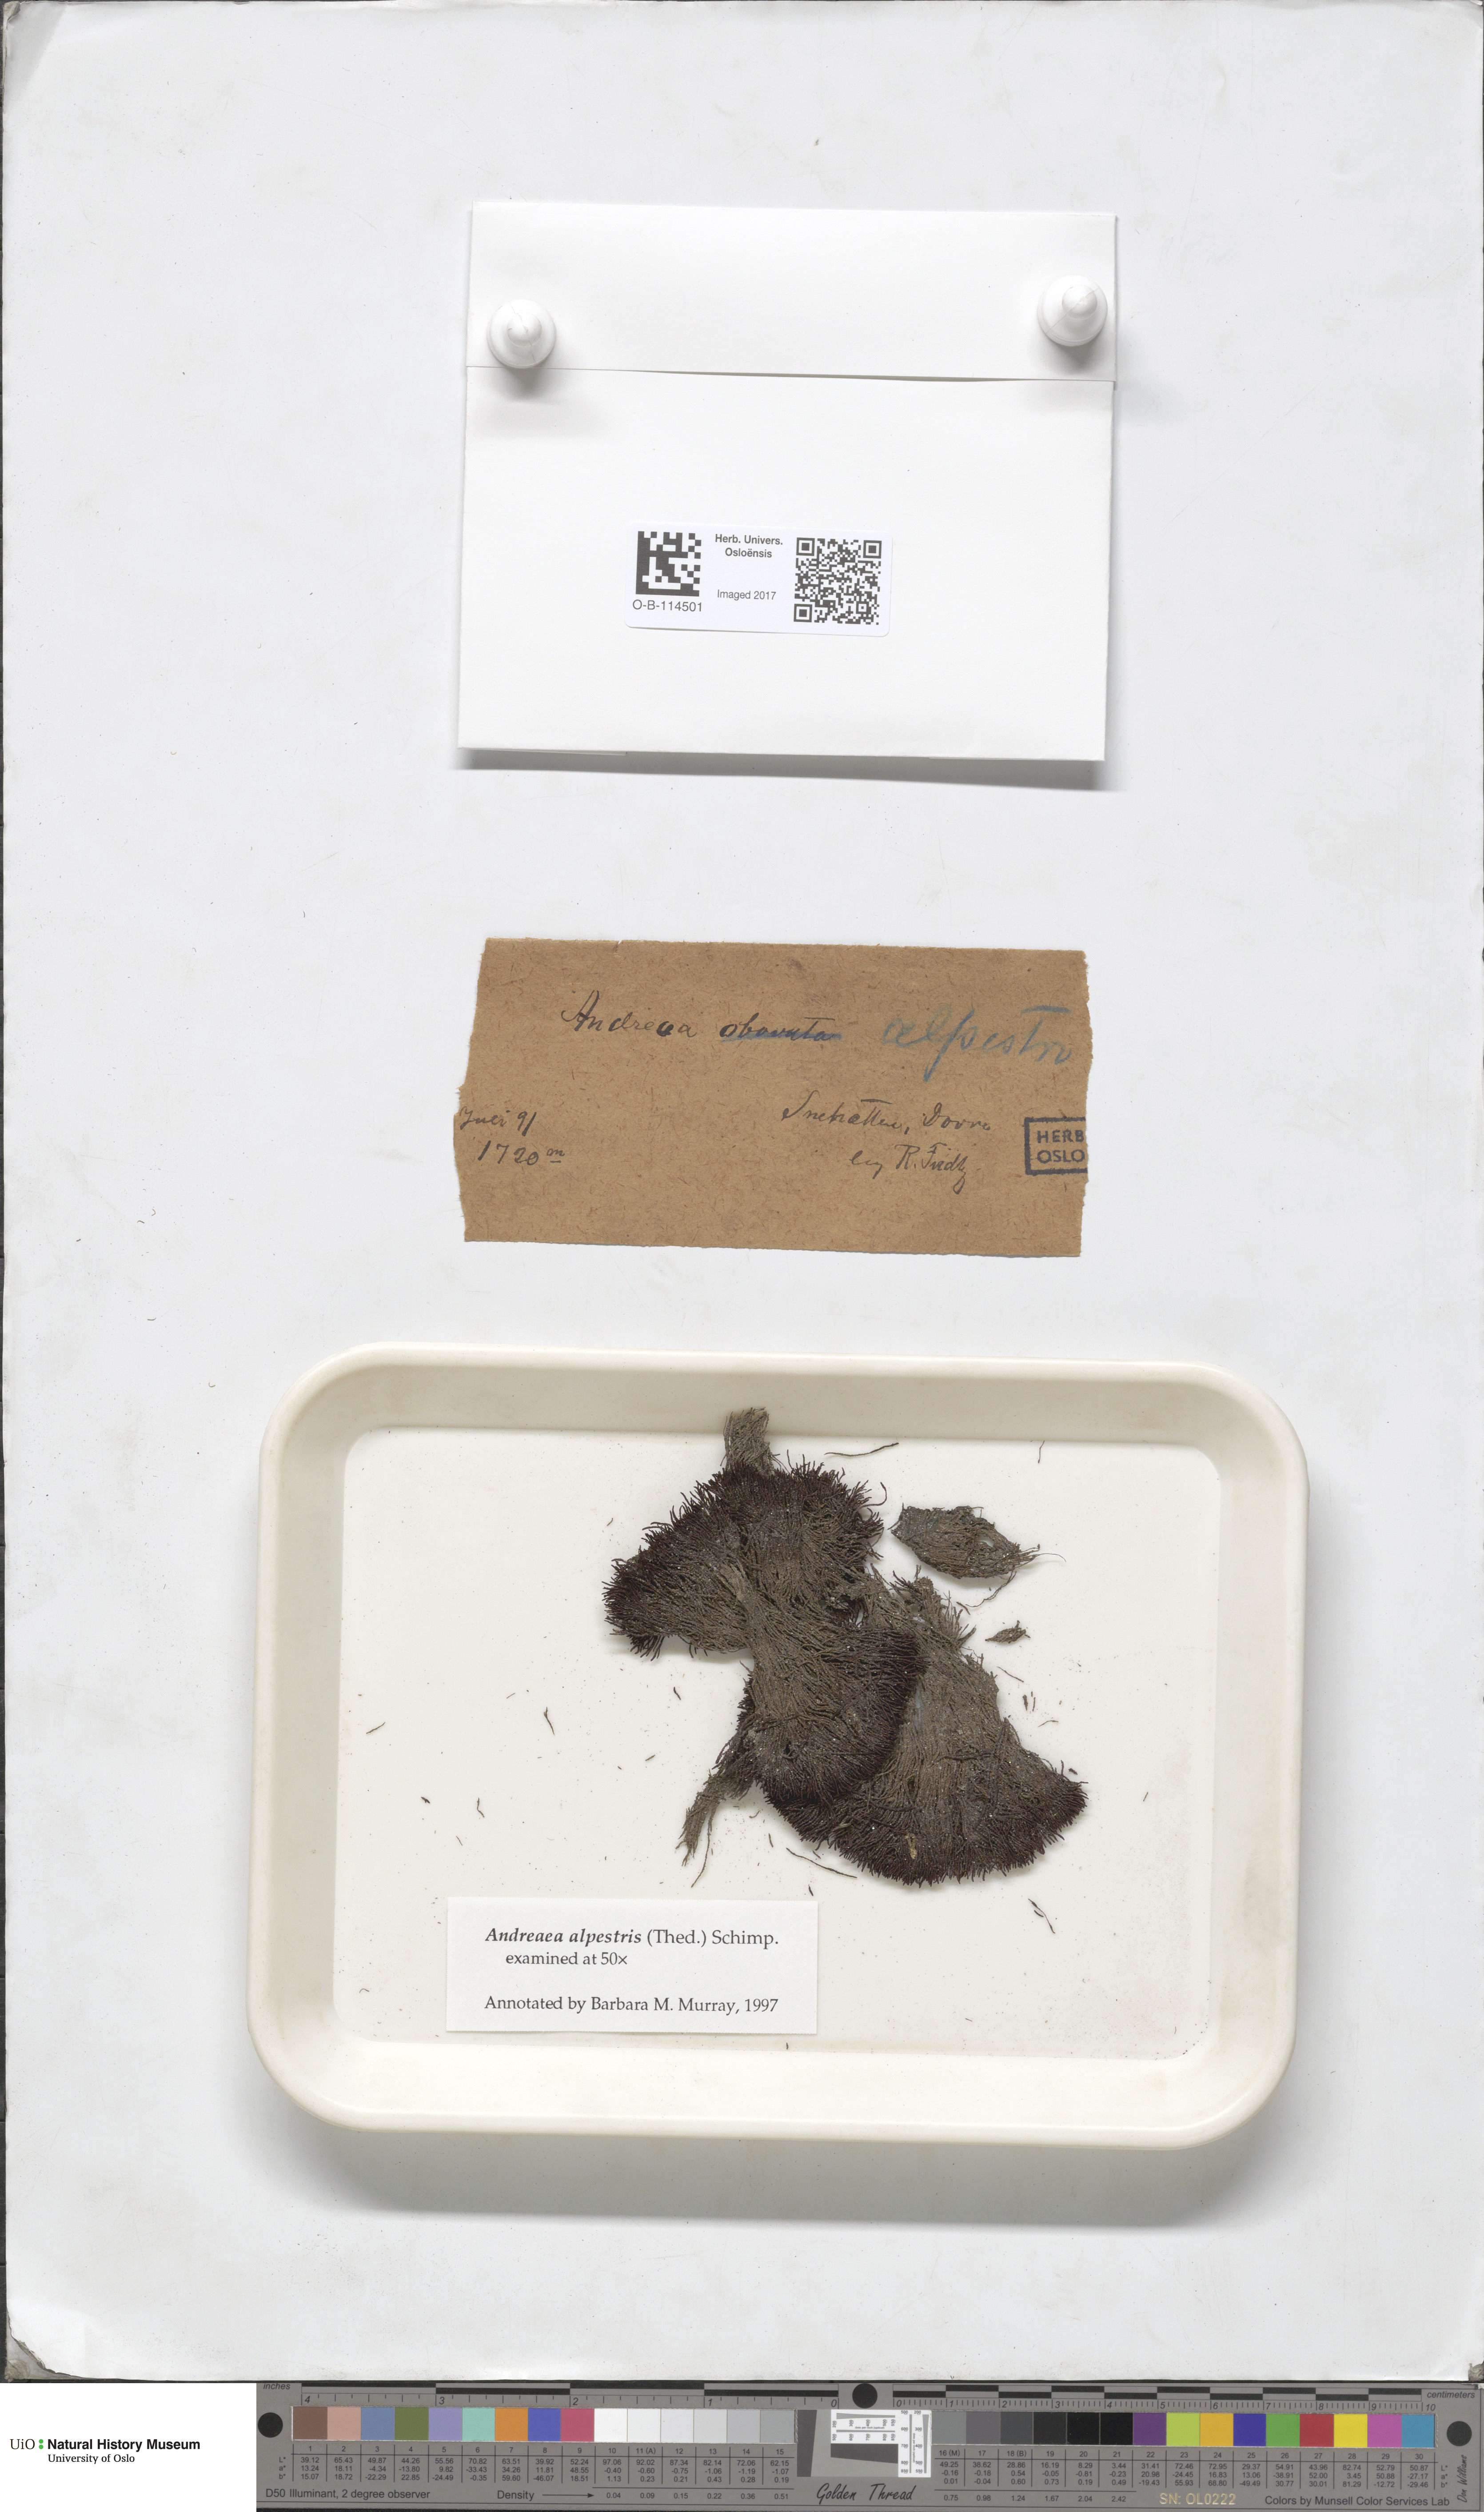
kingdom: Plantae
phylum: Bryophyta
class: Andreaeopsida
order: Andreaeales
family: Andreaeaceae
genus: Andreaea
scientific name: Andreaea alpestris
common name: Slender rock-moss
